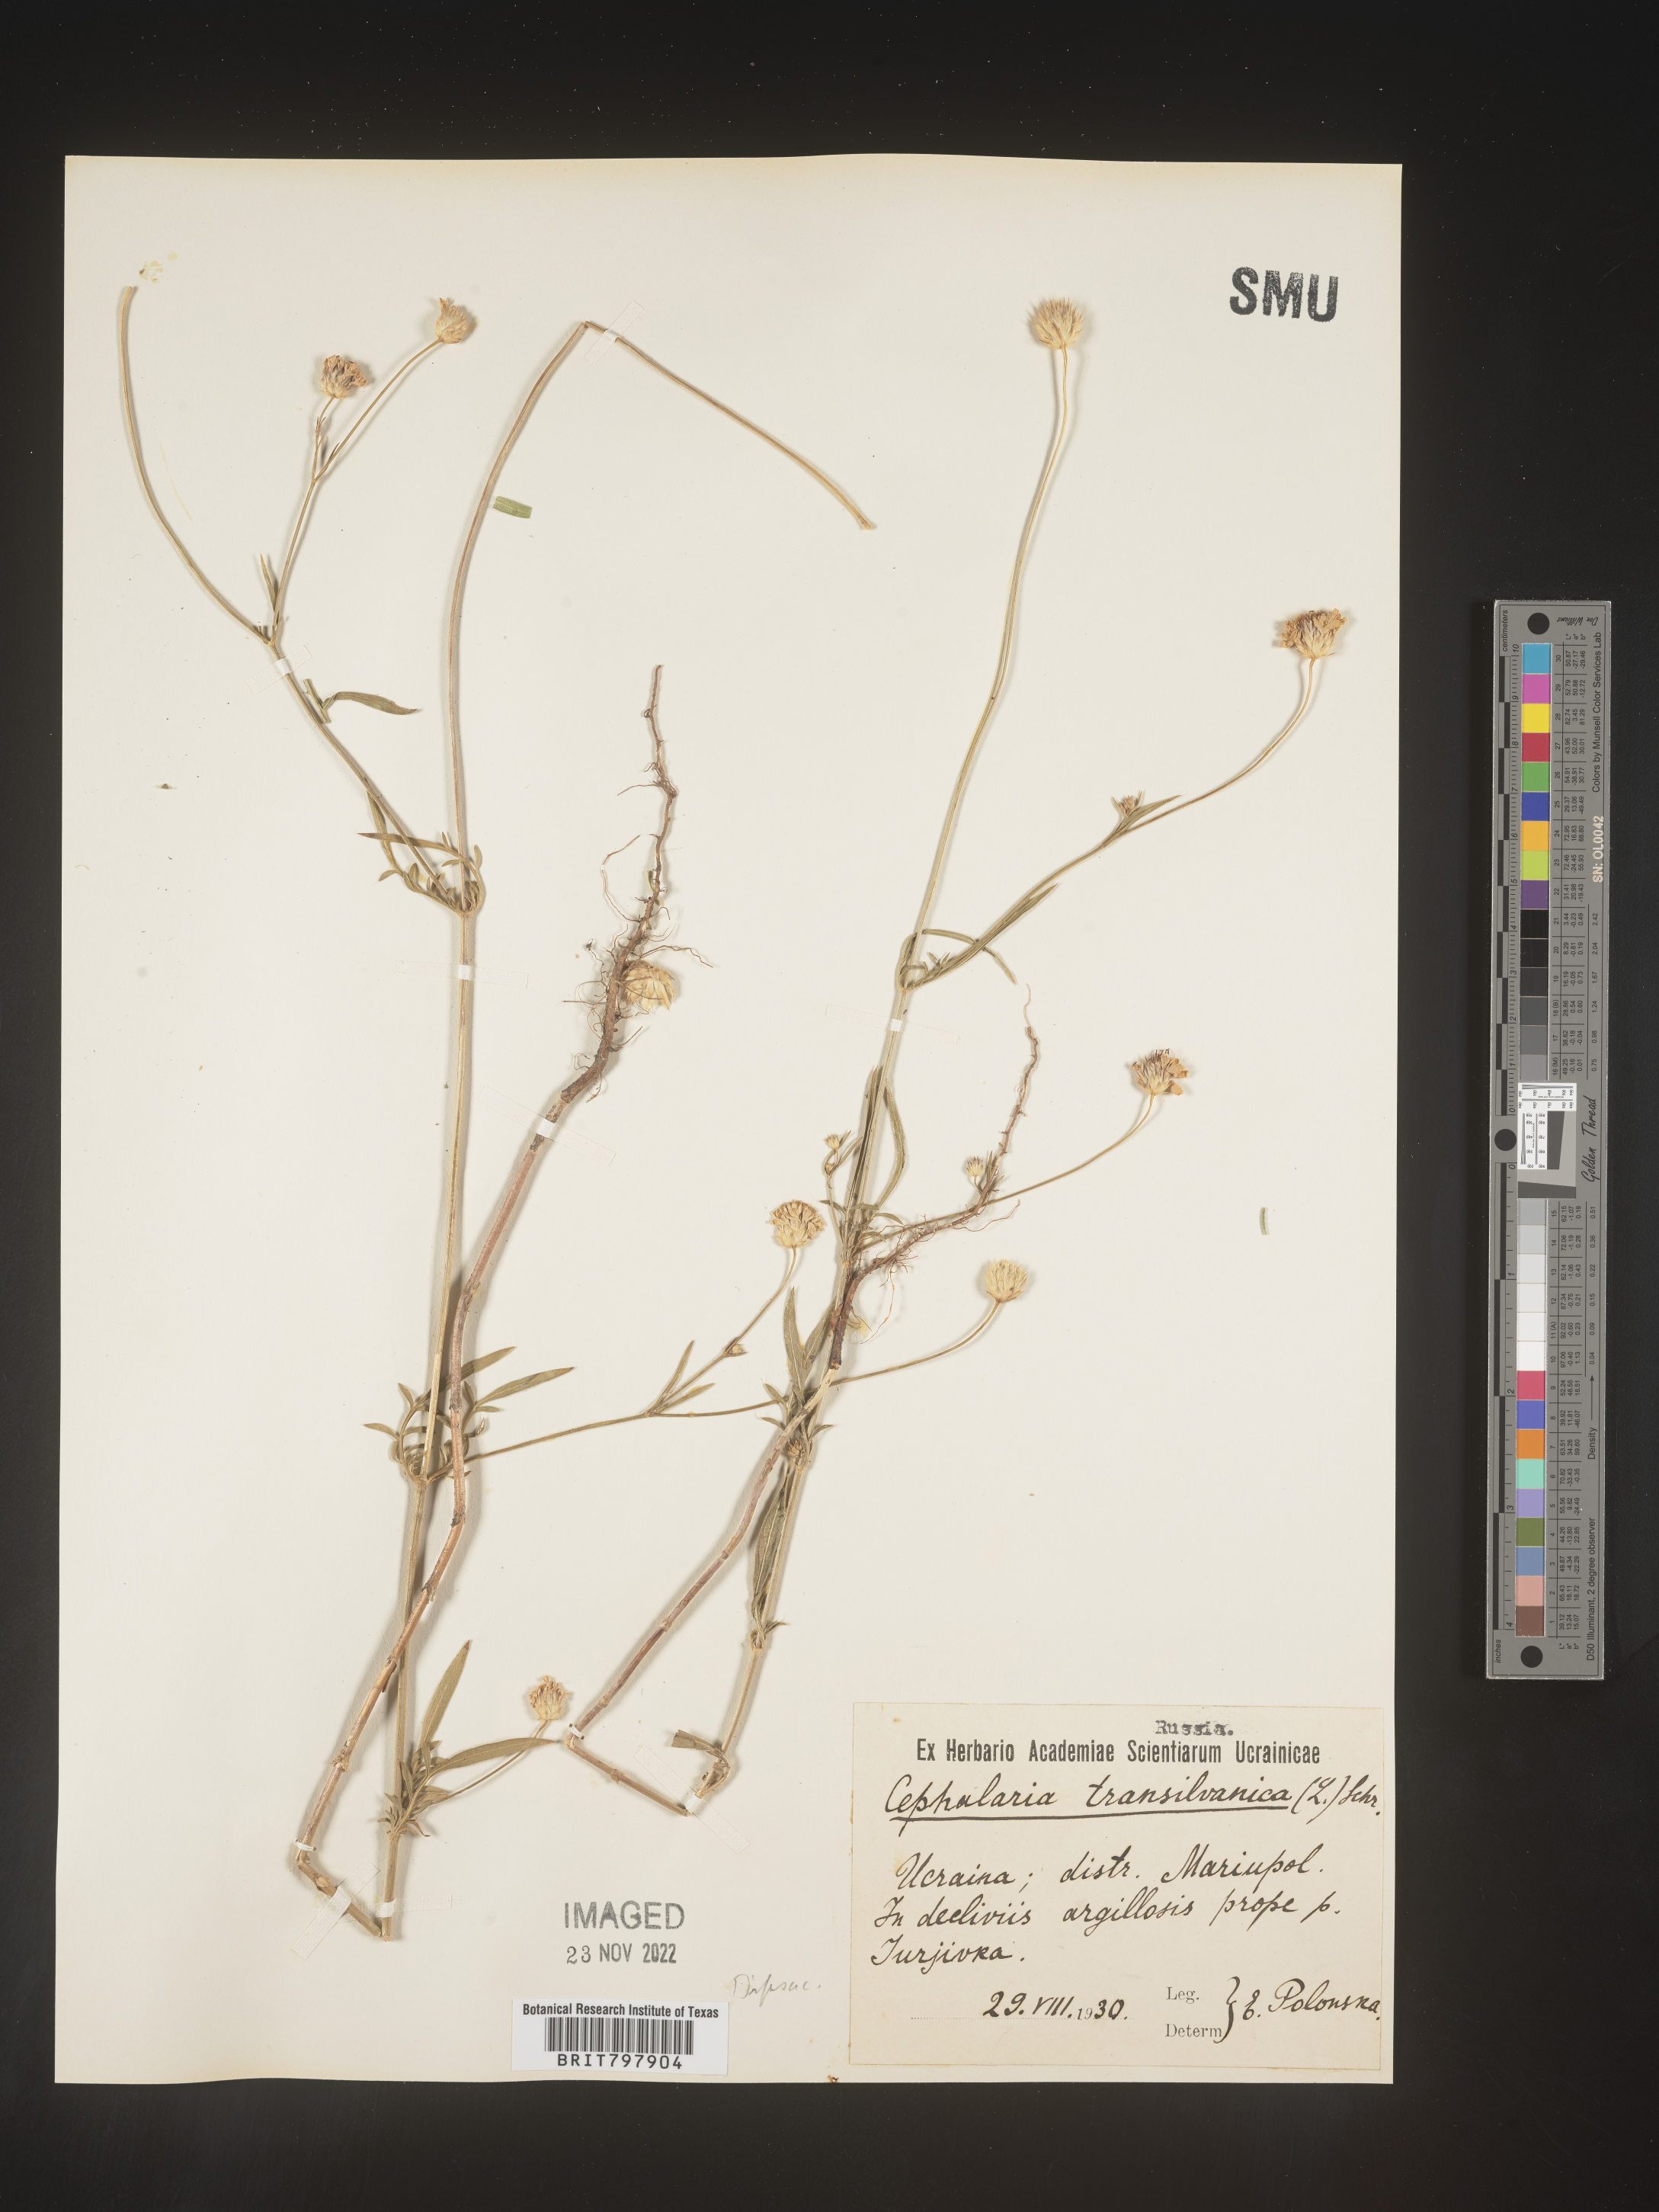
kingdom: Plantae
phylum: Tracheophyta
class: Magnoliopsida
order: Dipsacales
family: Caprifoliaceae
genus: Cephalaria
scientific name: Cephalaria
